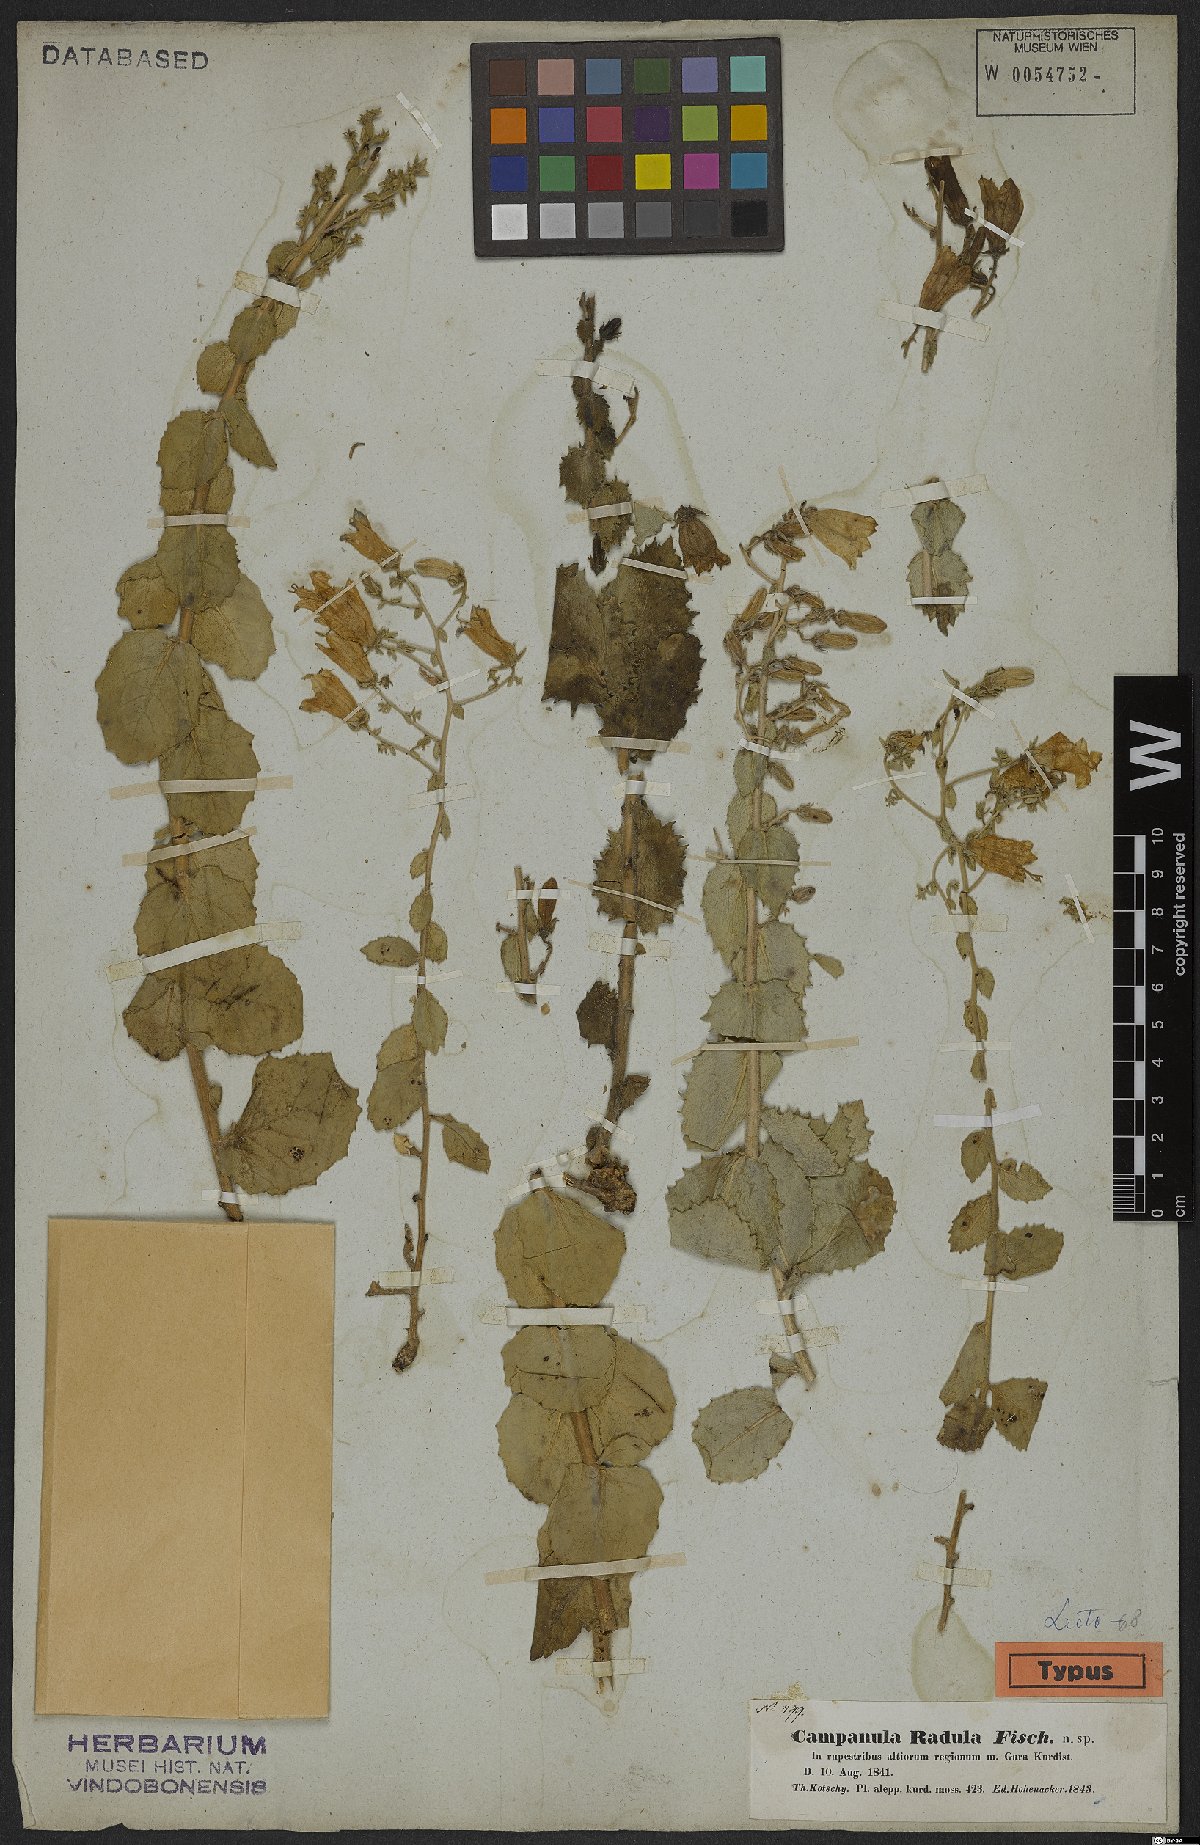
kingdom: Plantae
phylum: Tracheophyta
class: Magnoliopsida
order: Asterales
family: Campanulaceae
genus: Campanula
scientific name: Campanula radula
